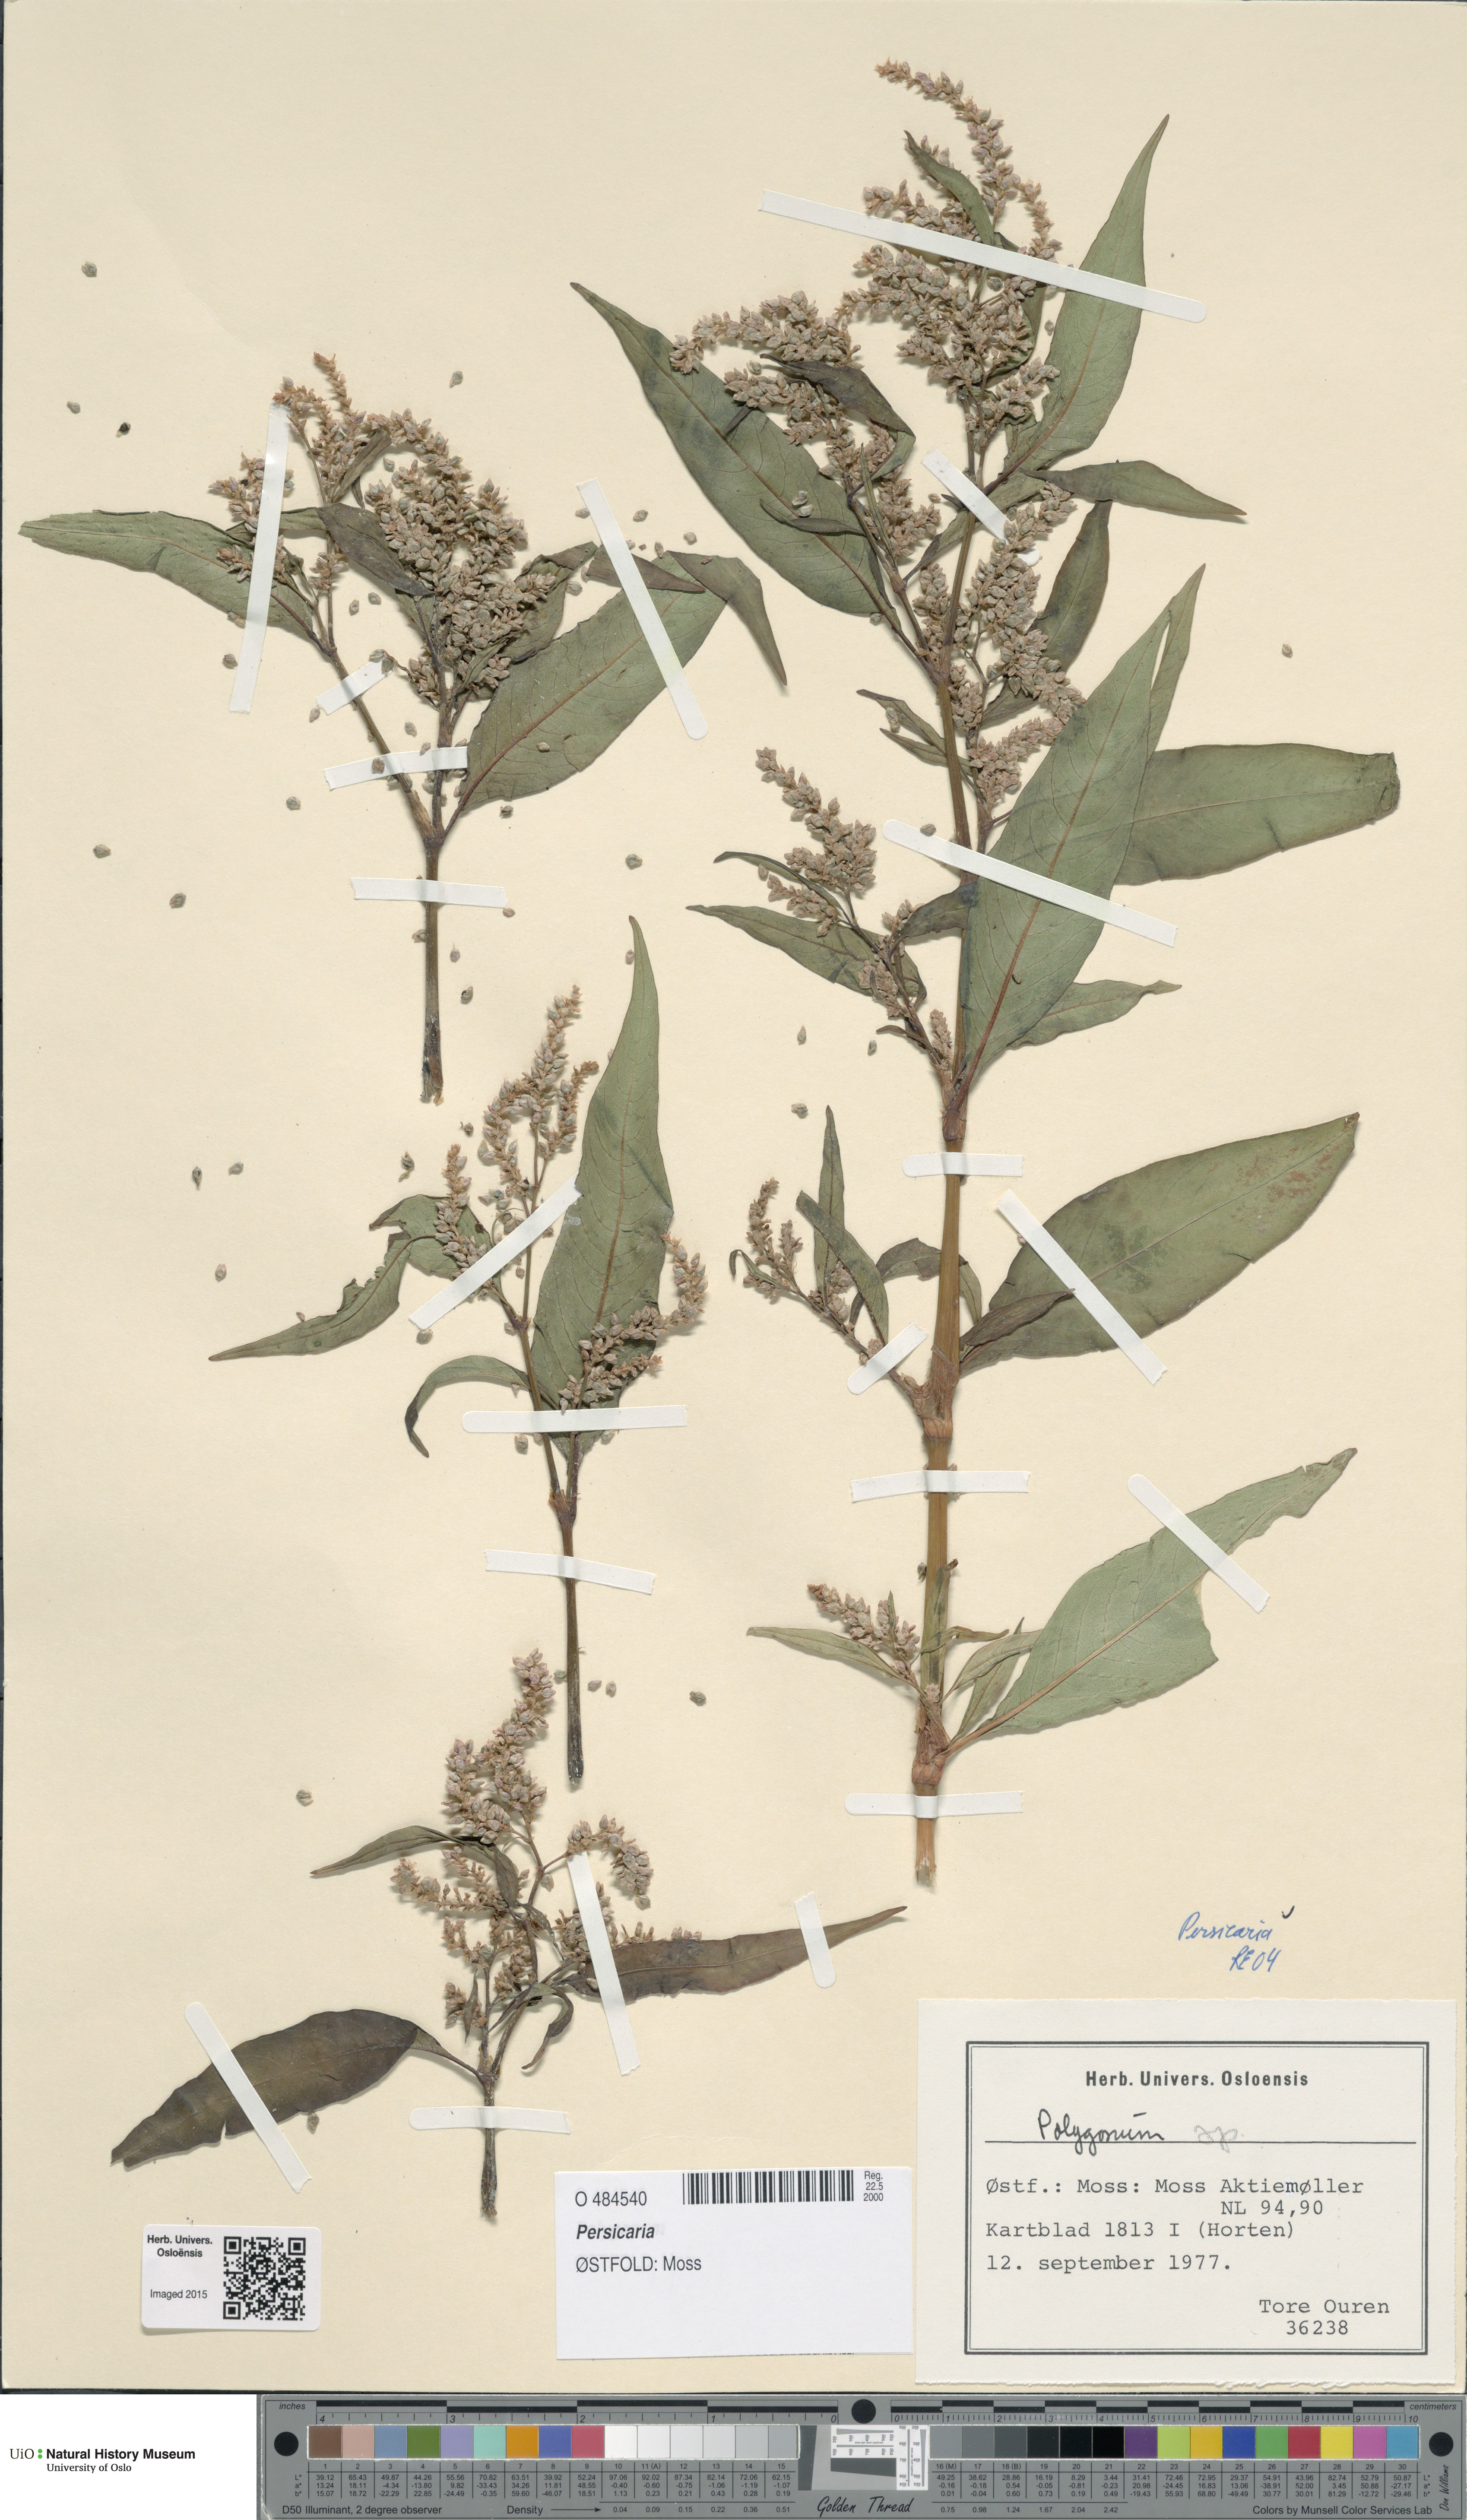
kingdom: Plantae
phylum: Tracheophyta
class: Magnoliopsida
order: Caryophyllales
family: Polygonaceae
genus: Persicaria
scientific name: Persicaria
